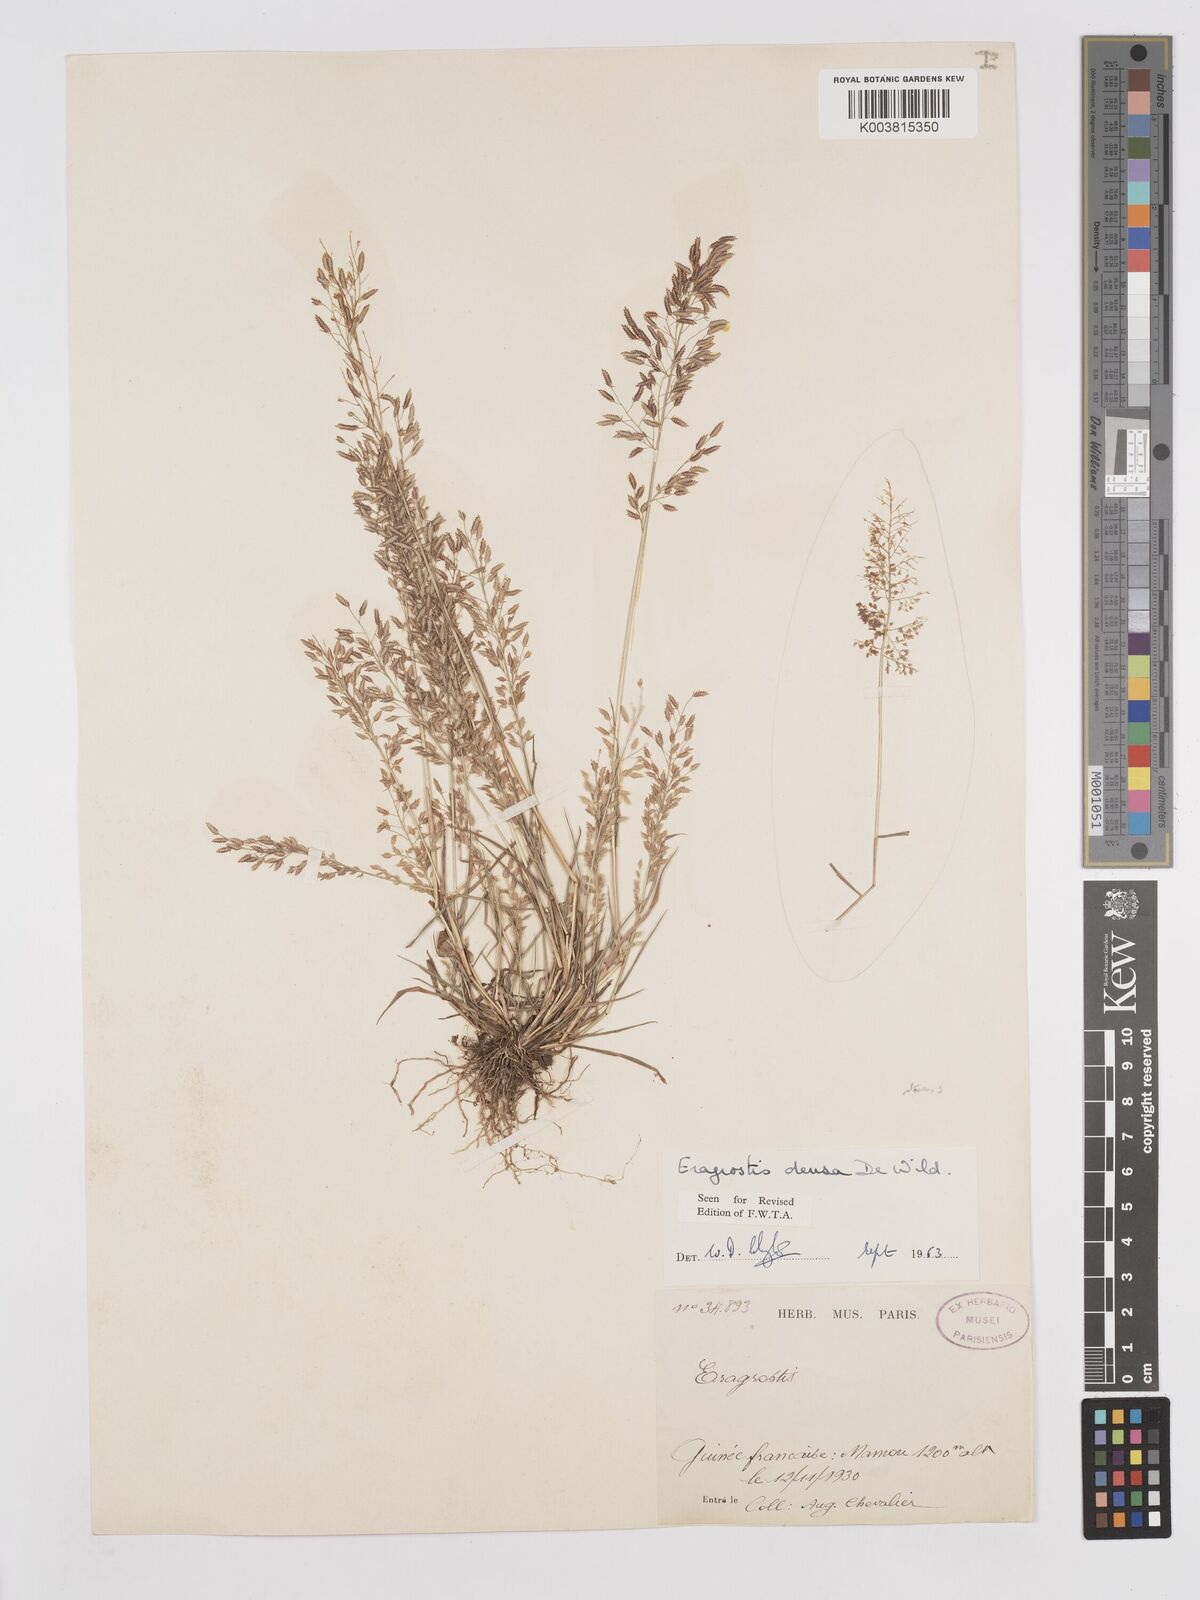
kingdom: Plantae
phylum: Tracheophyta
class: Liliopsida
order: Poales
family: Poaceae
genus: Eragrostis
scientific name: Eragrostis welwitschii
